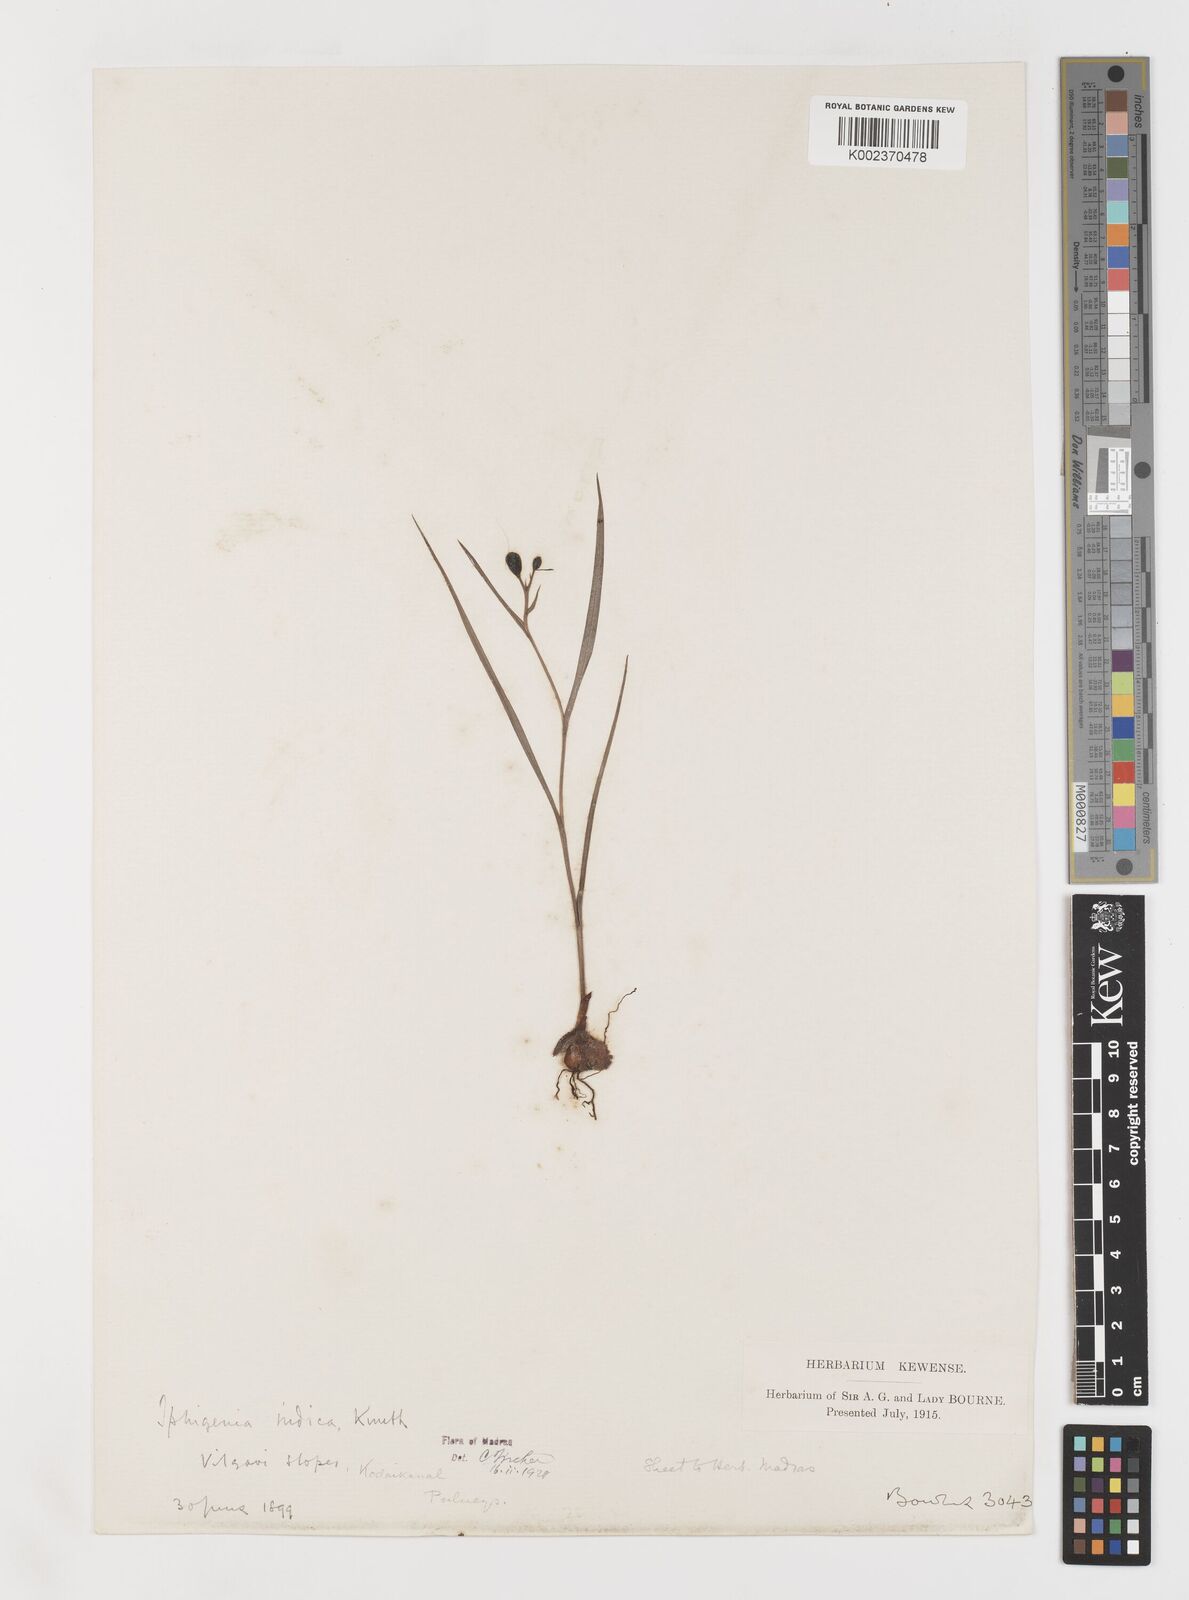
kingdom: Plantae
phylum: Tracheophyta
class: Liliopsida
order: Liliales
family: Colchicaceae
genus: Iphigenia
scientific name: Iphigenia indica
